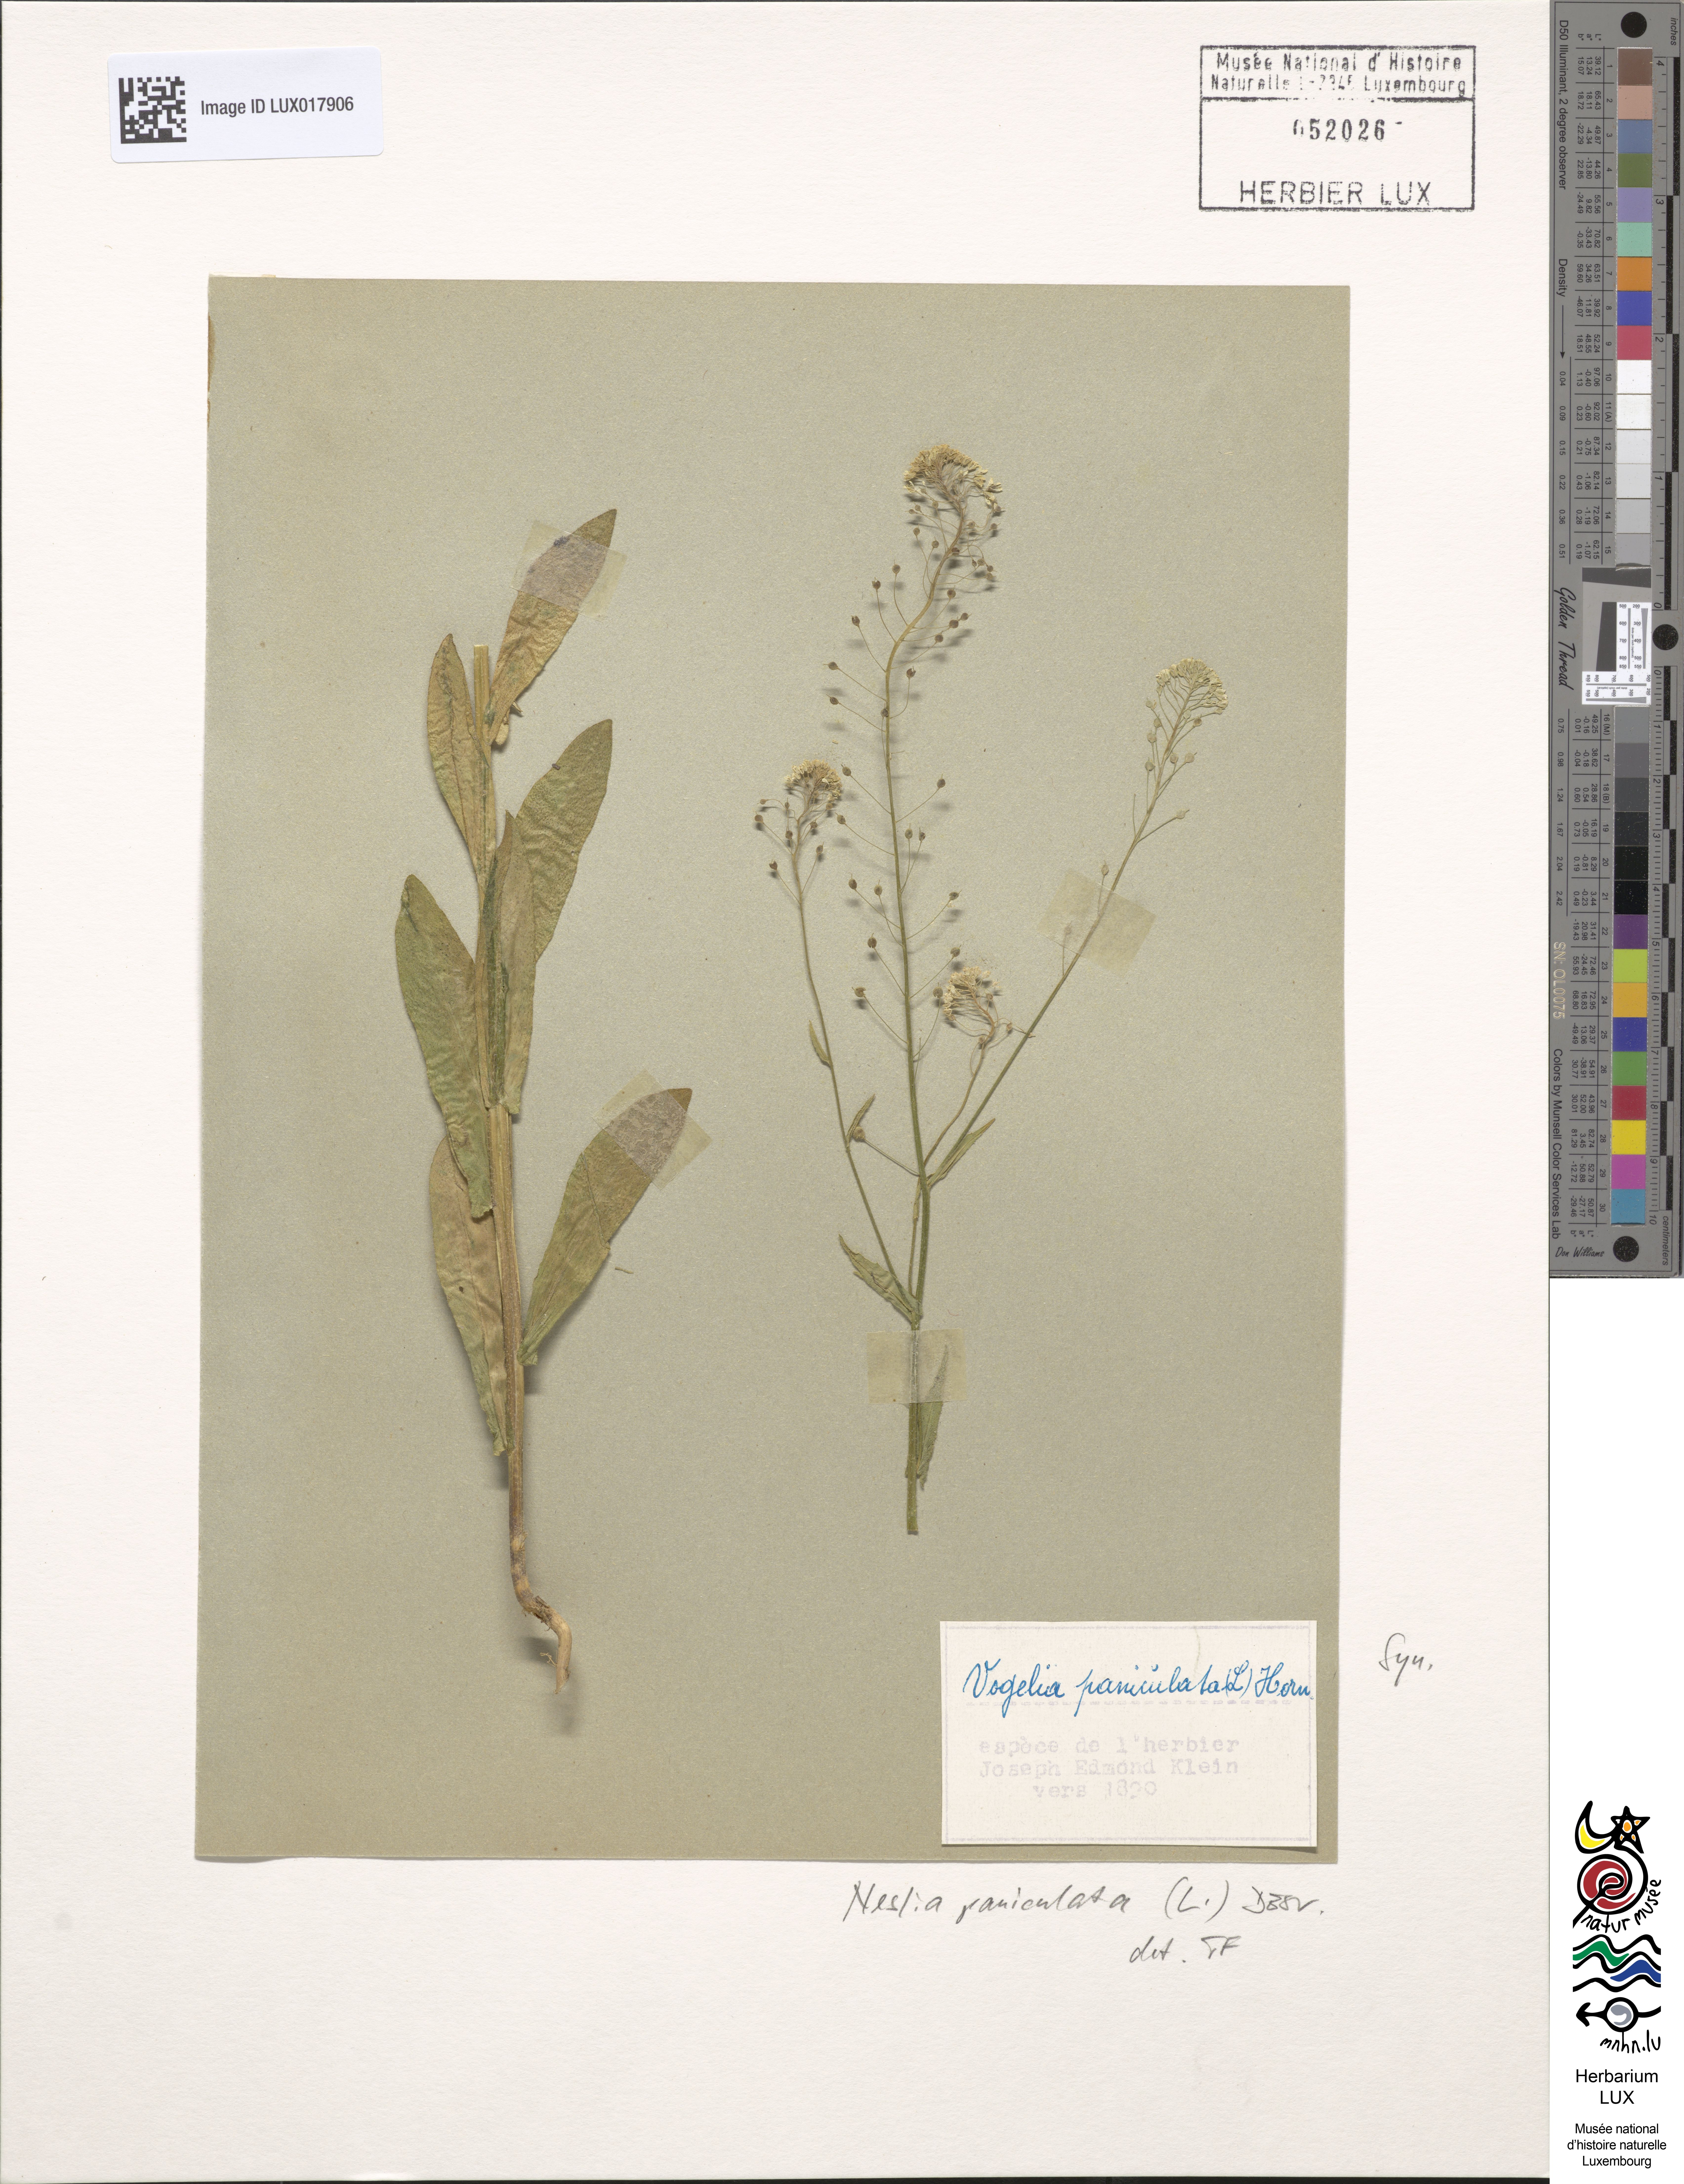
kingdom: Plantae
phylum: Tracheophyta
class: Magnoliopsida
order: Brassicales
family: Brassicaceae
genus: Neslia
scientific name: Neslia paniculata
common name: Ball mustard
